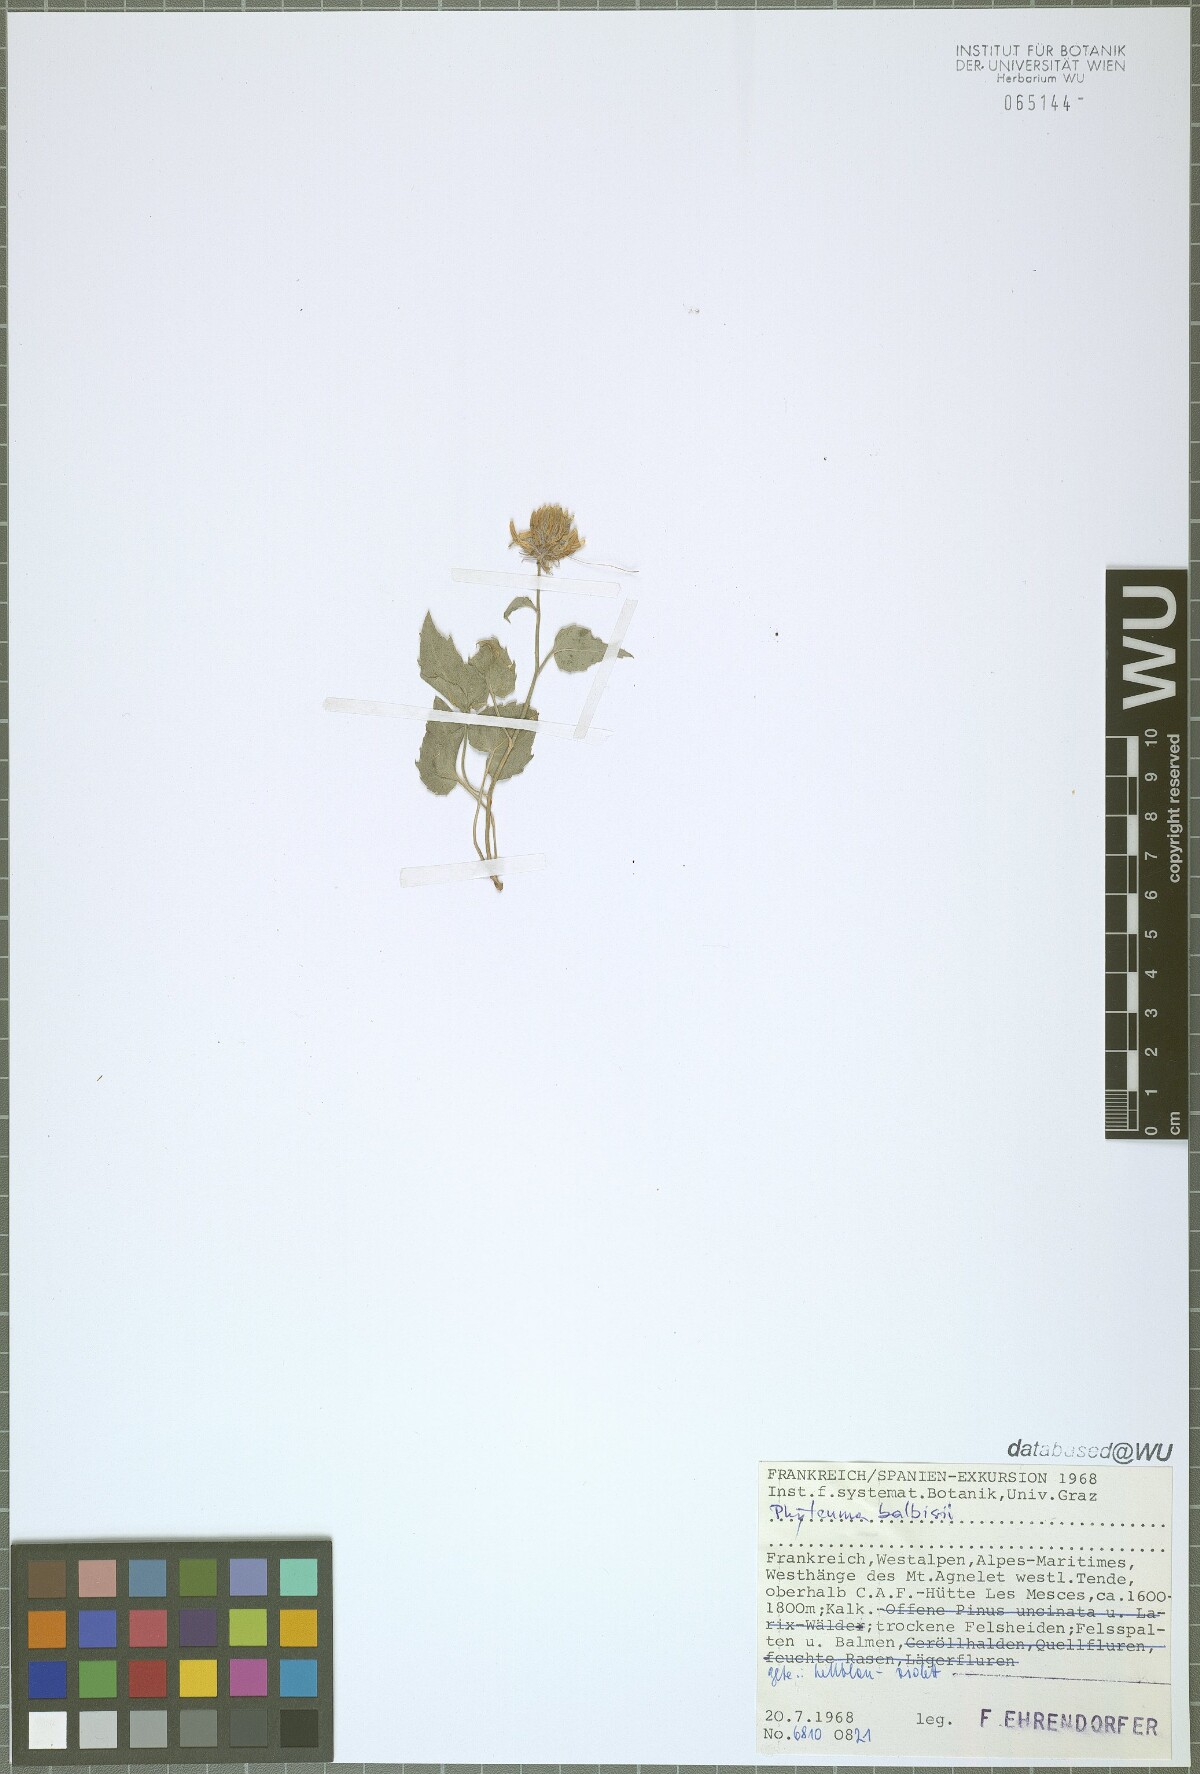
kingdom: Plantae
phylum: Tracheophyta
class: Magnoliopsida
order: Asterales
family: Campanulaceae
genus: Phyteuma
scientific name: Phyteuma cordatum
